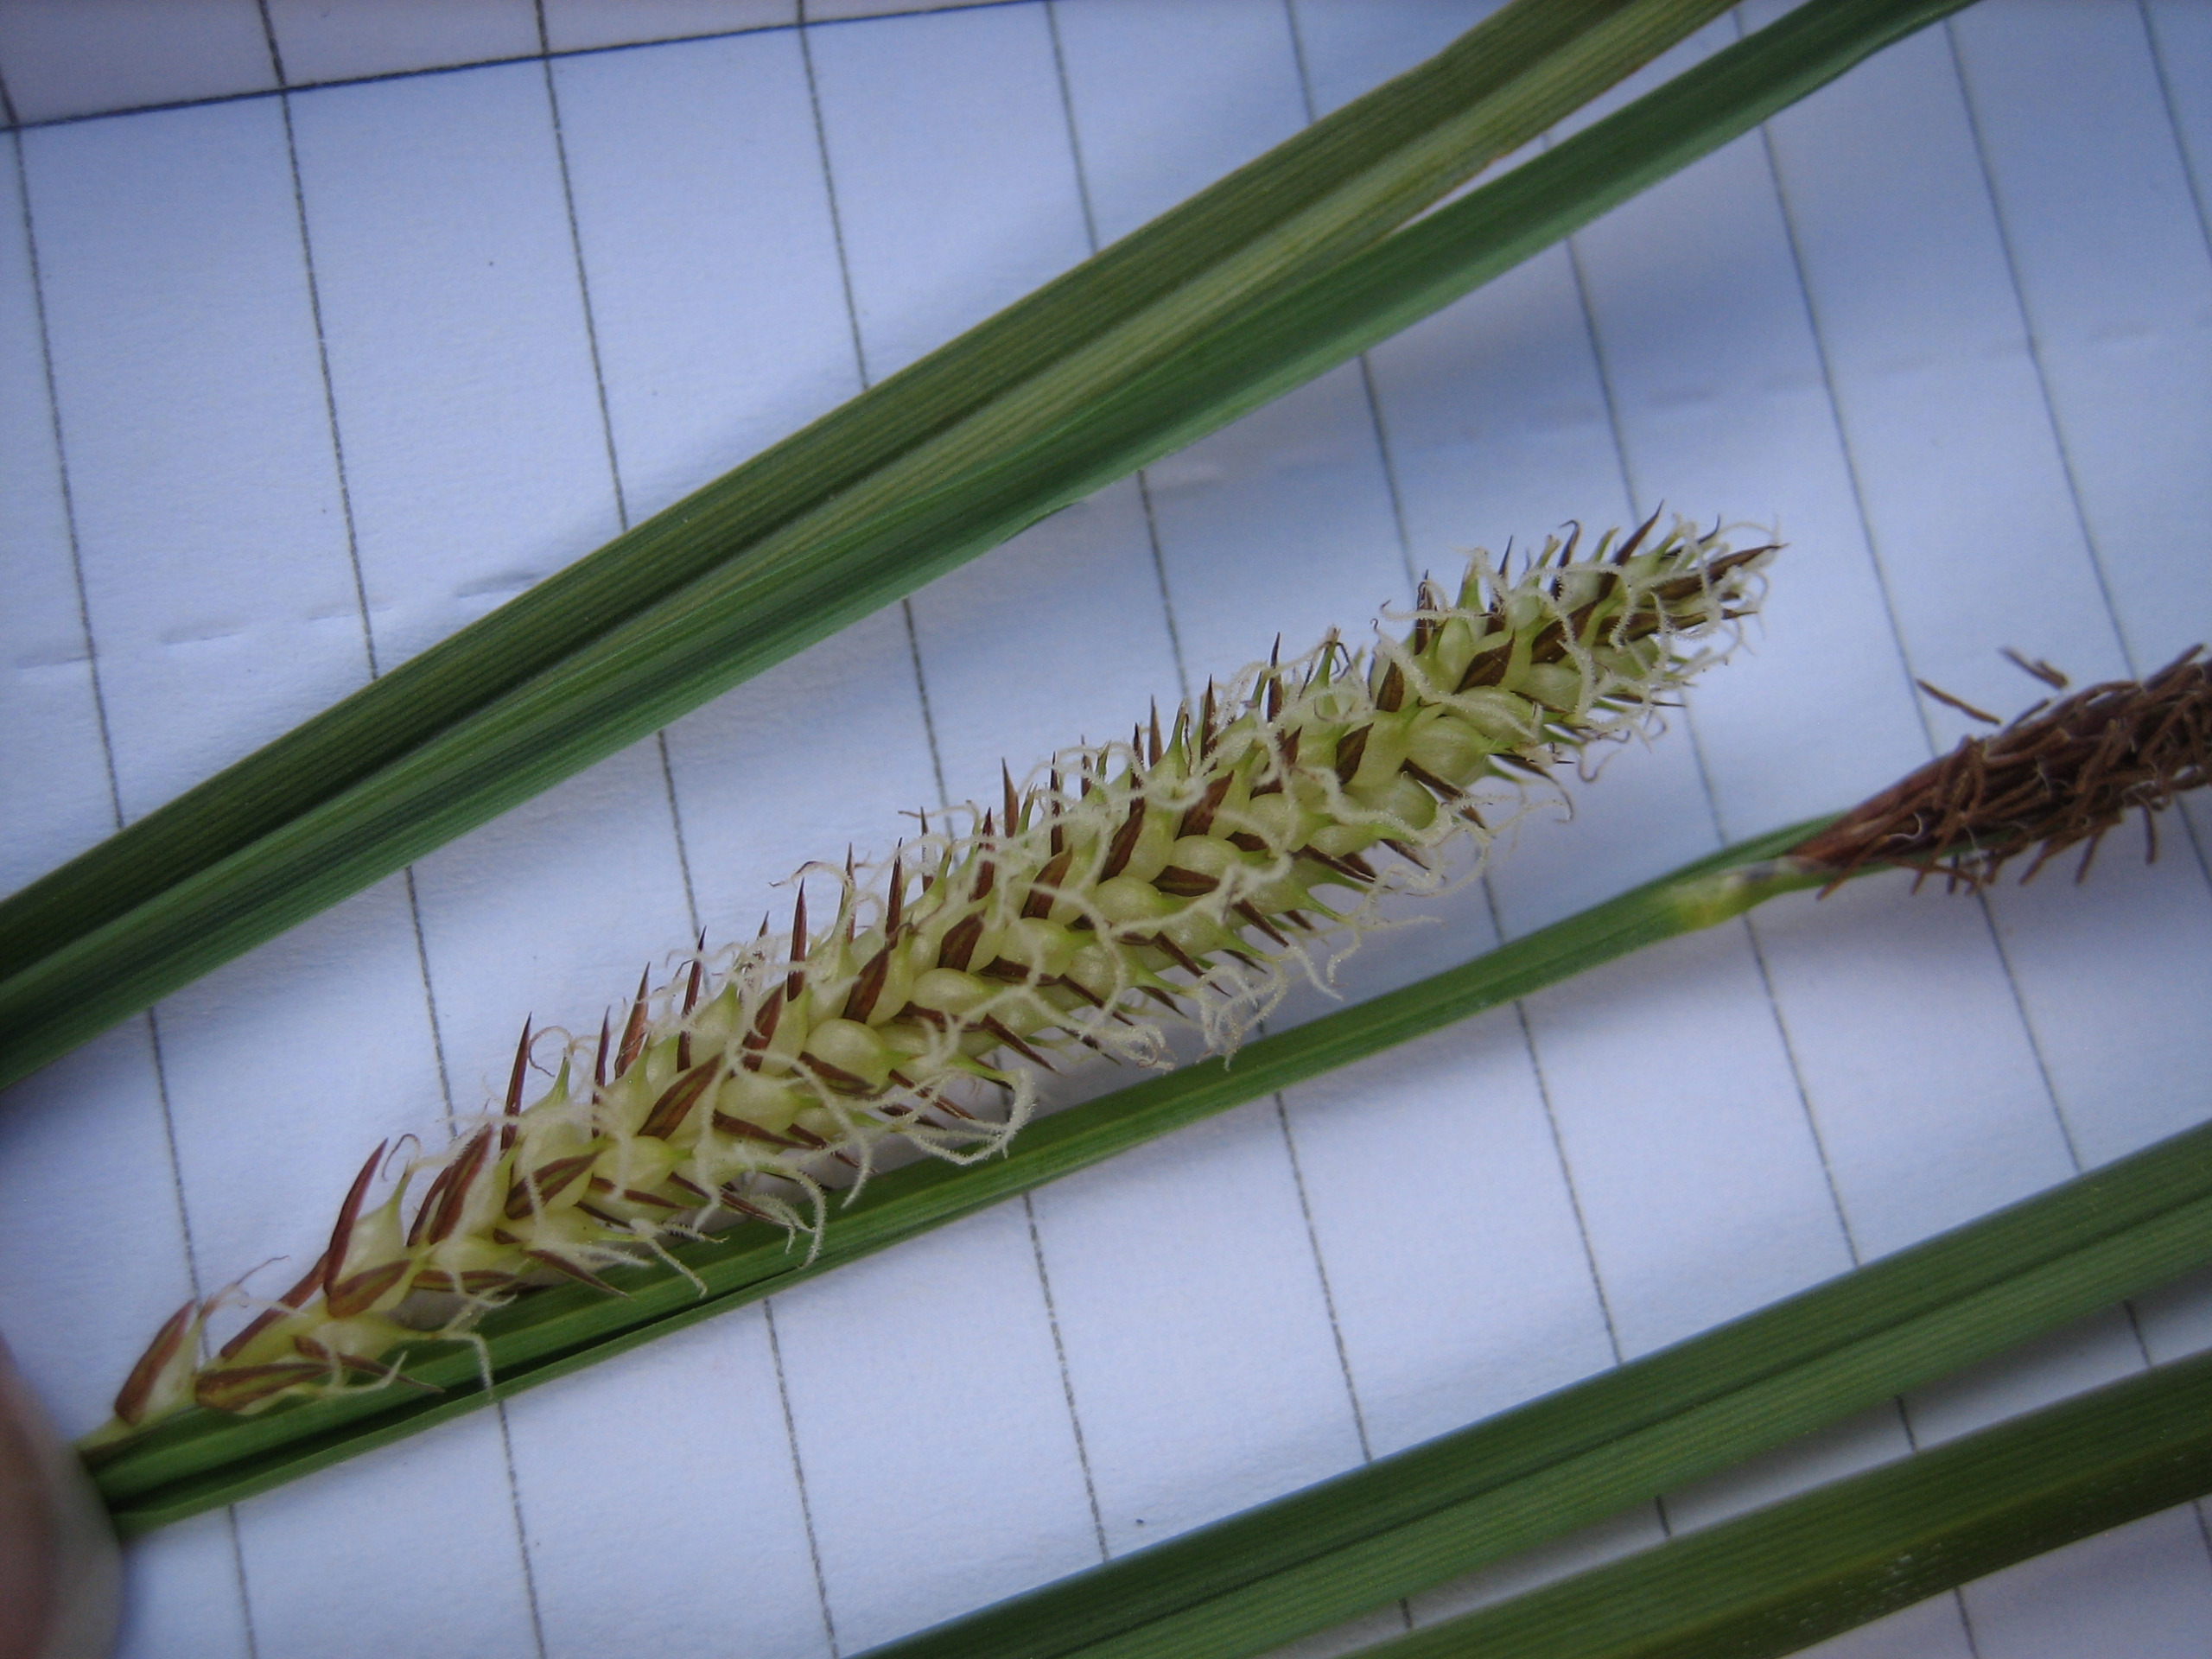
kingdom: Plantae
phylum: Tracheophyta
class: Liliopsida
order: Poales
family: Cyperaceae
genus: Carex
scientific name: Carex rostrata
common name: Næb-star
